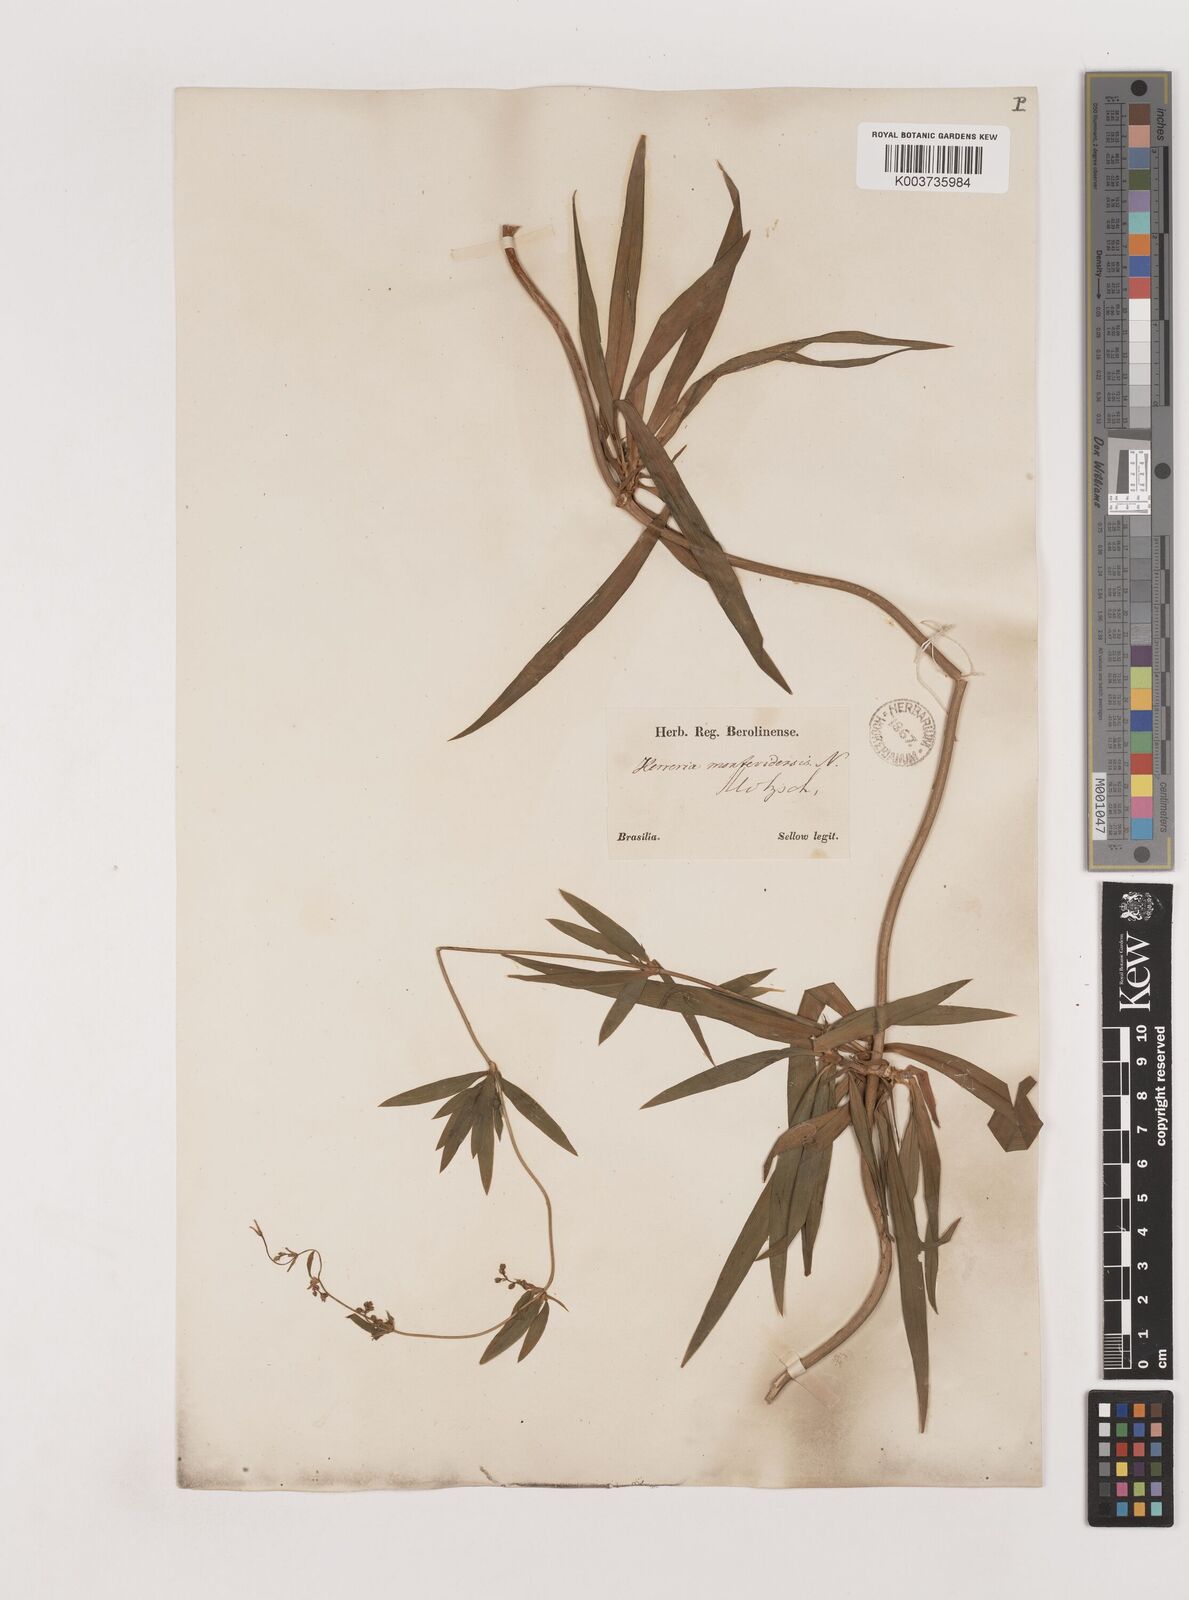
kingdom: Plantae
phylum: Tracheophyta
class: Liliopsida
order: Asparagales
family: Asparagaceae
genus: Herreria
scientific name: Herreria montevidensis
